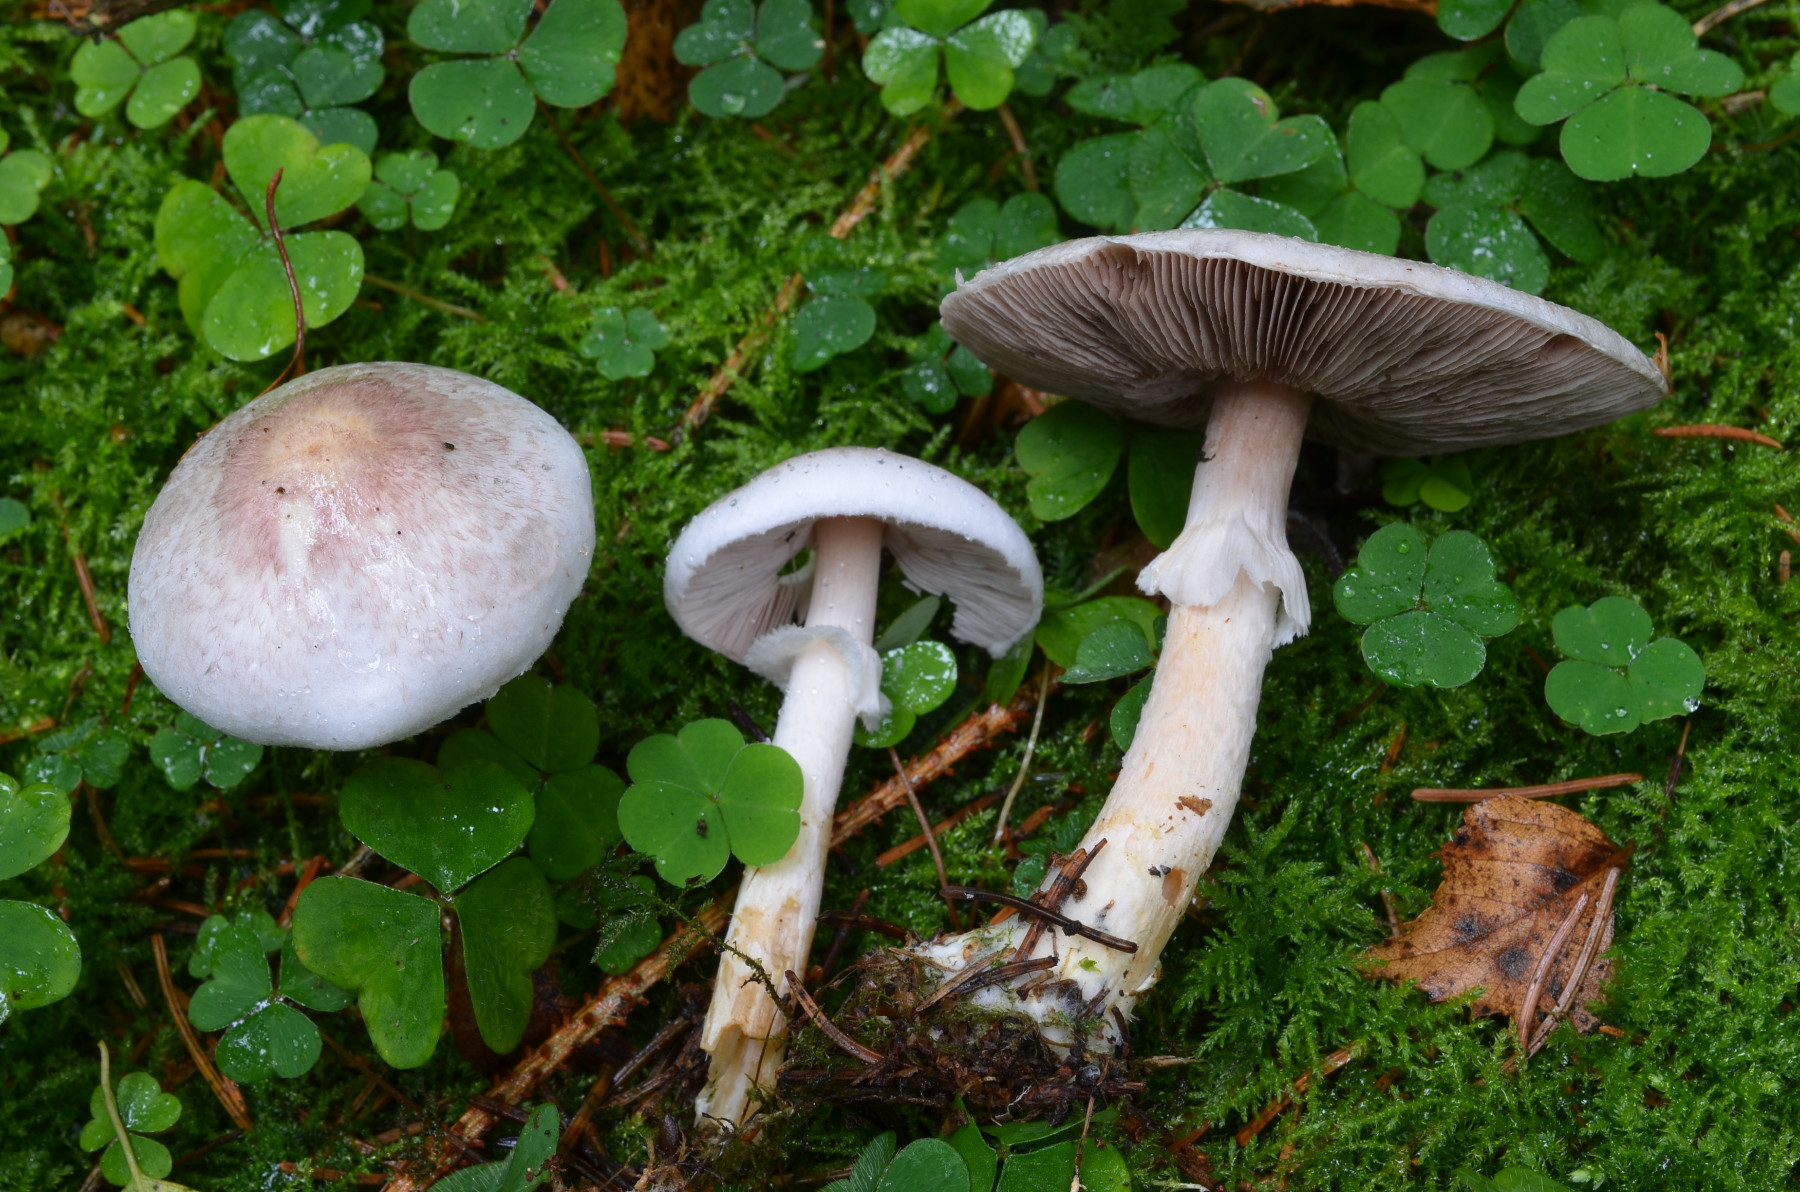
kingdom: Fungi
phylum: Basidiomycota
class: Agaricomycetes
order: Agaricales
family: Agaricaceae
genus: Agaricus
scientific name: Agaricus friesianus
